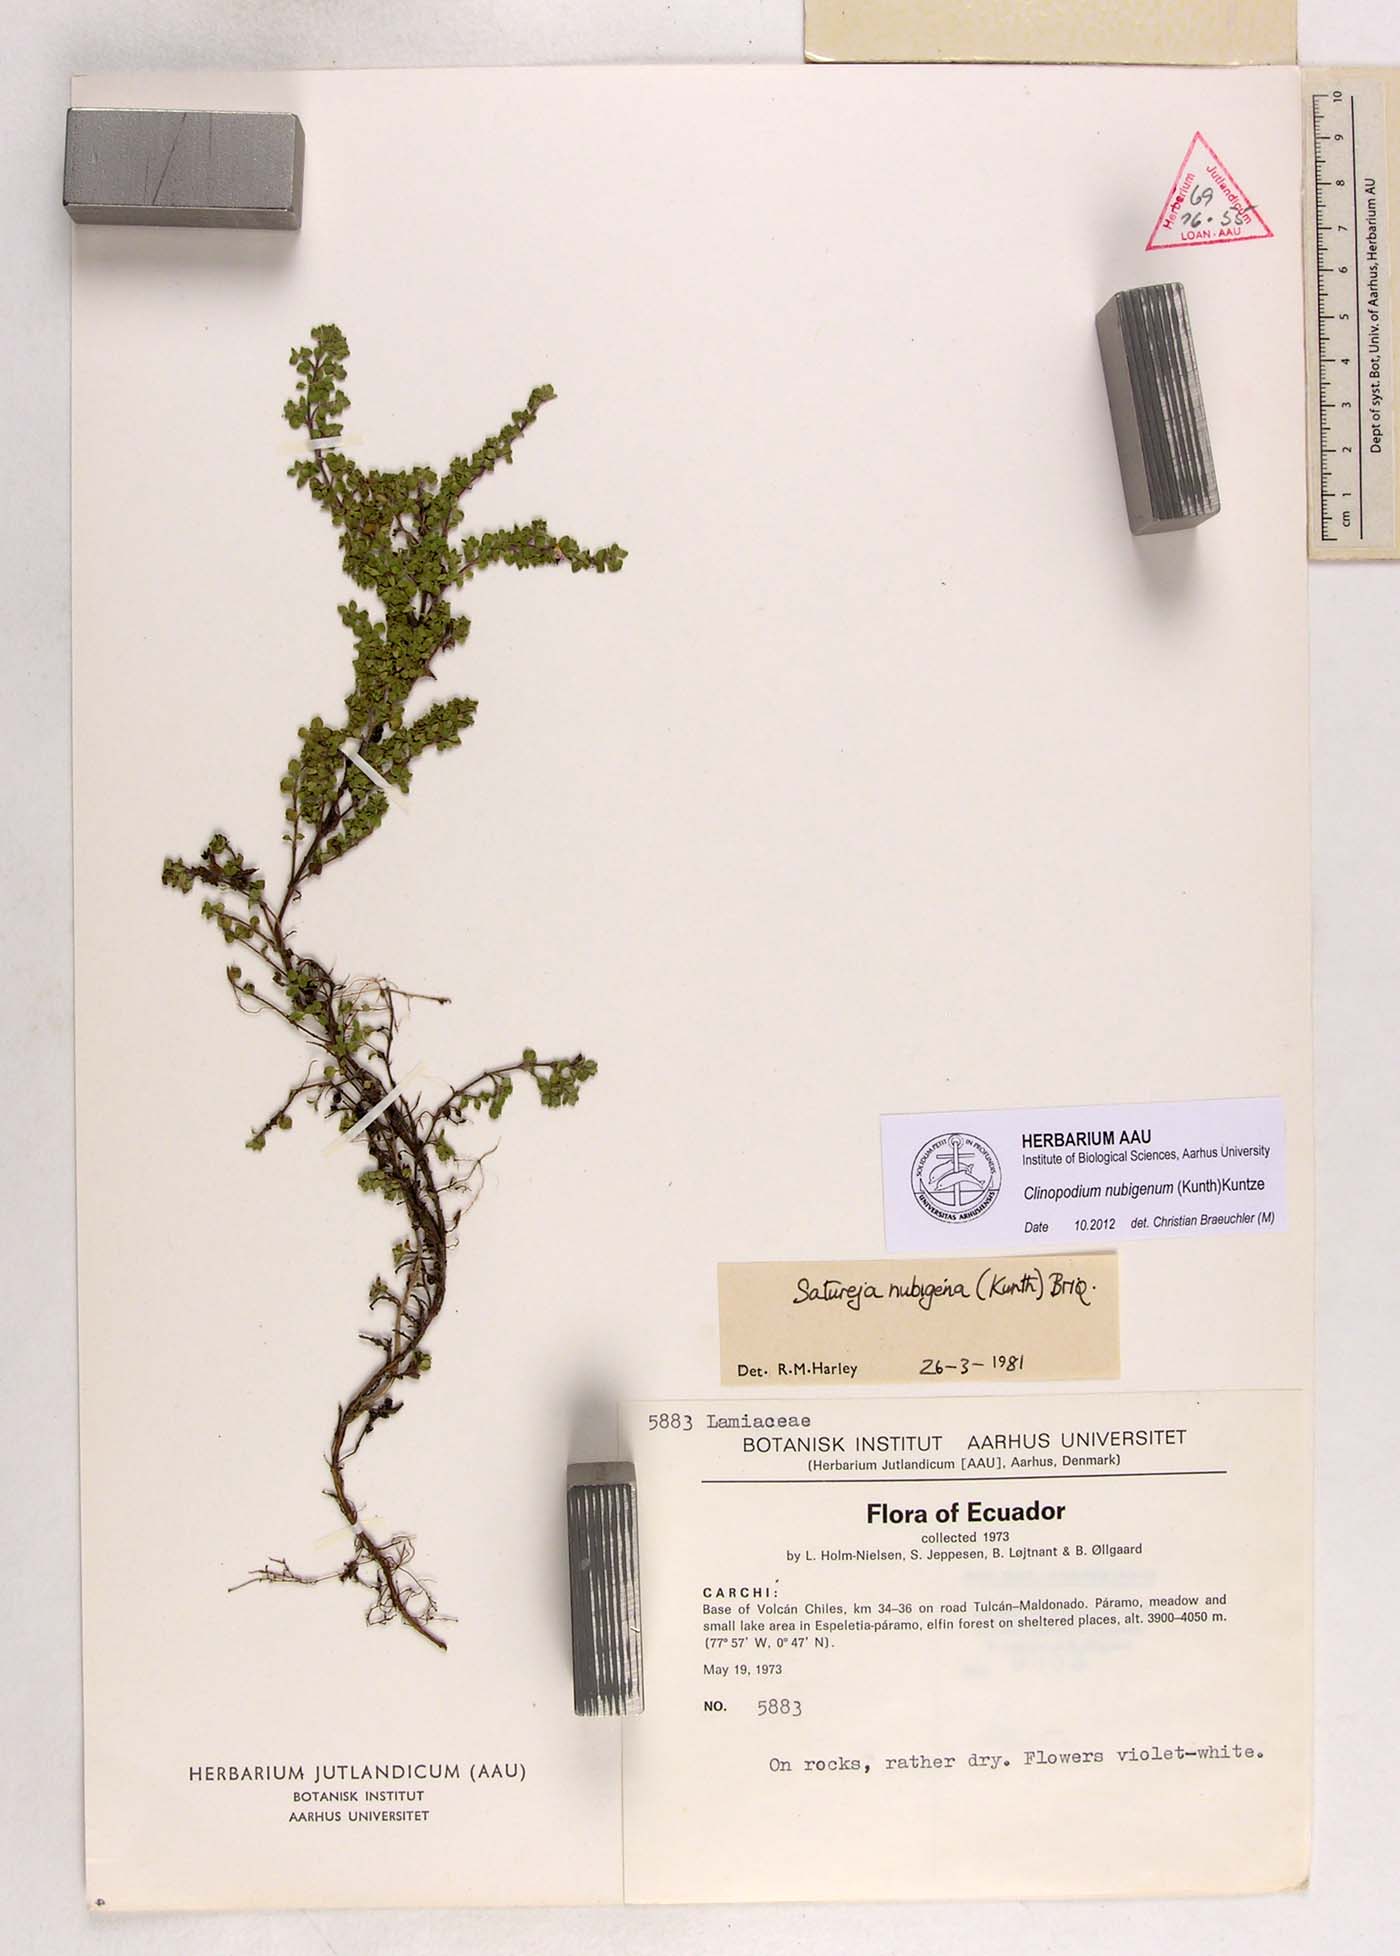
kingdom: Plantae
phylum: Tracheophyta
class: Magnoliopsida
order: Lamiales
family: Lamiaceae
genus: Clinopodium
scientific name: Clinopodium nubigenum
